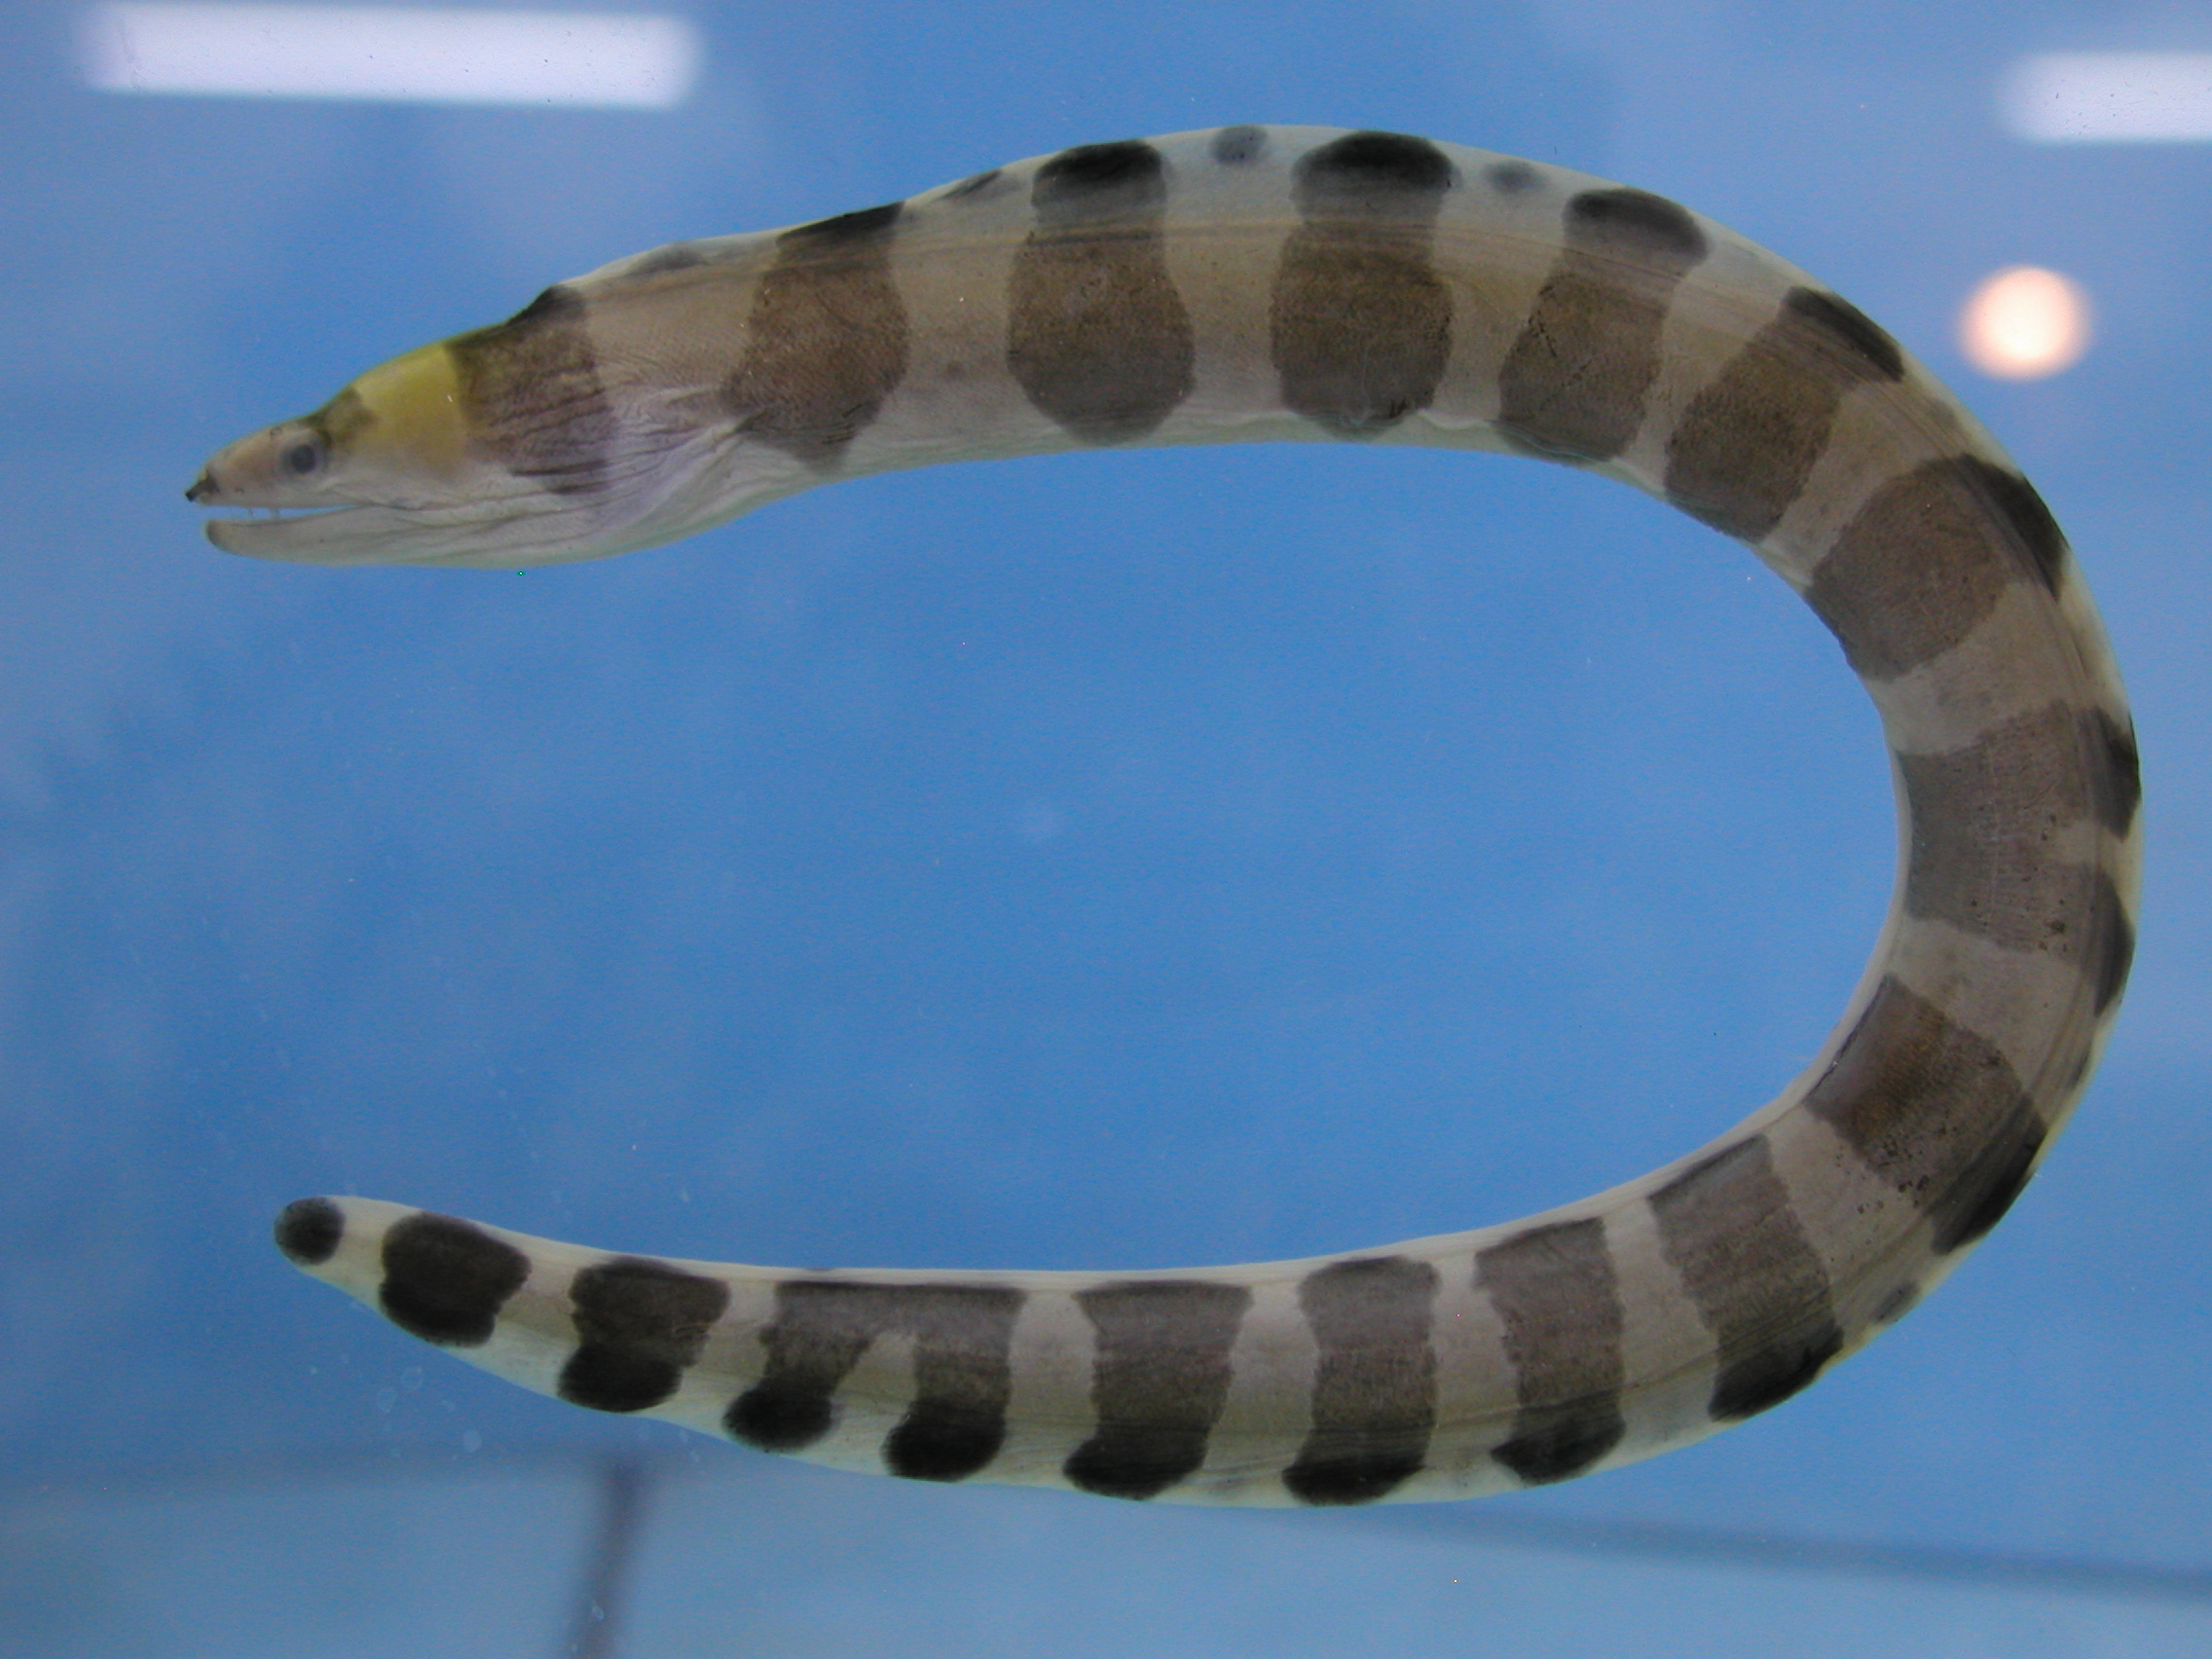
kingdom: Animalia
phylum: Chordata
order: Anguilliformes
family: Muraenidae
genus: Gymnothorax
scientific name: Gymnothorax rueppelliae
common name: Banded moray
